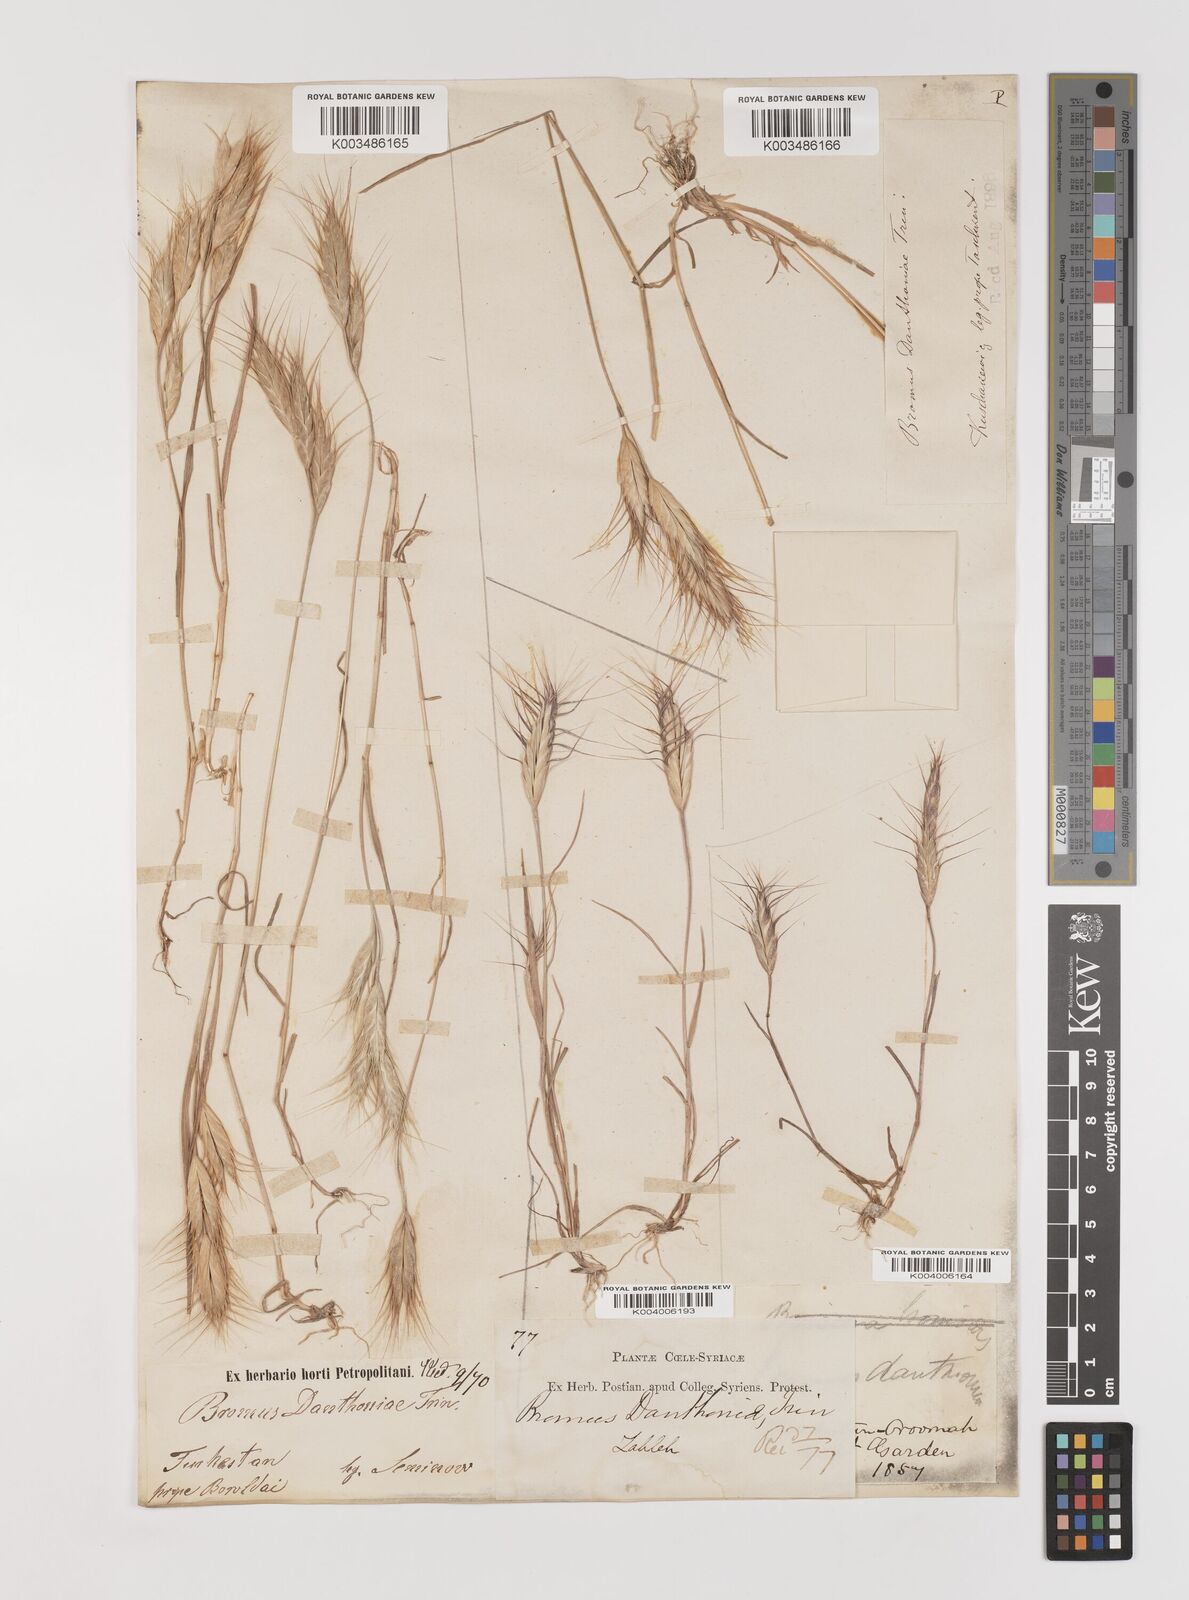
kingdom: Plantae
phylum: Tracheophyta
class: Liliopsida
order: Poales
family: Poaceae
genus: Bromus
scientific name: Bromus danthoniae
